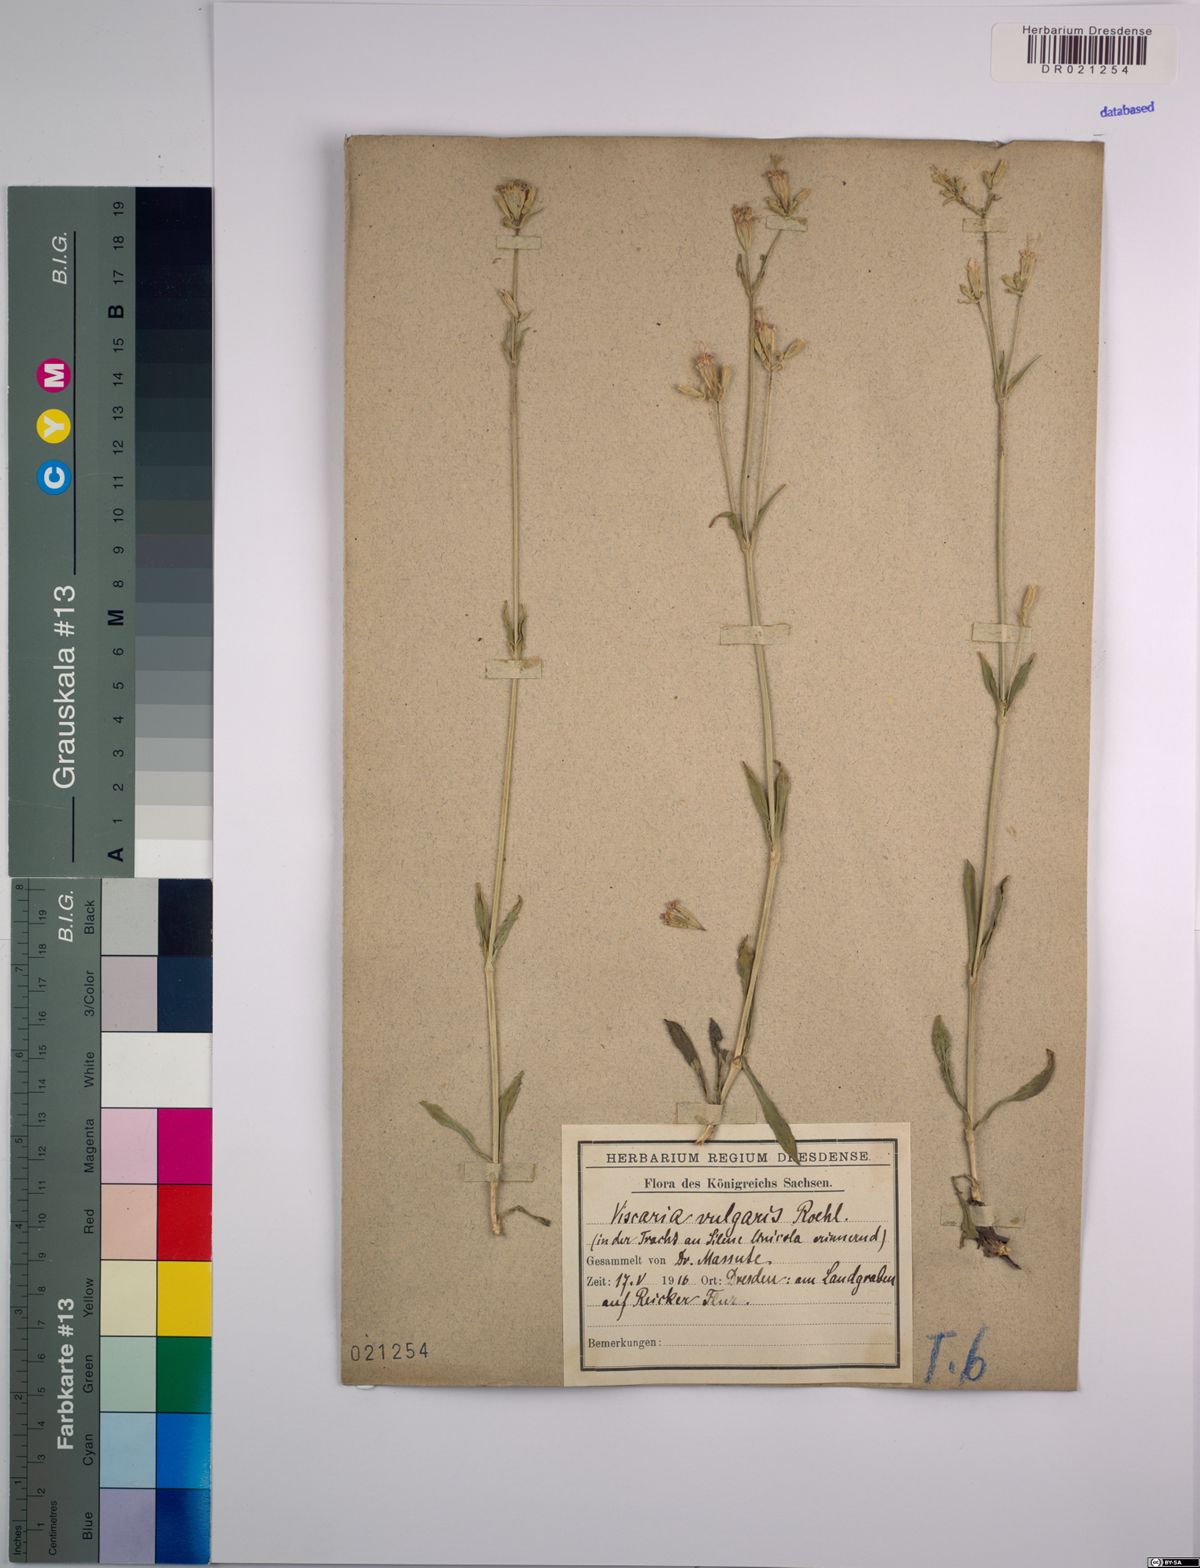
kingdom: Plantae
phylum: Tracheophyta
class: Magnoliopsida
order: Caryophyllales
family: Caryophyllaceae
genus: Viscaria
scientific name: Viscaria vulgaris
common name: Clammy campion
